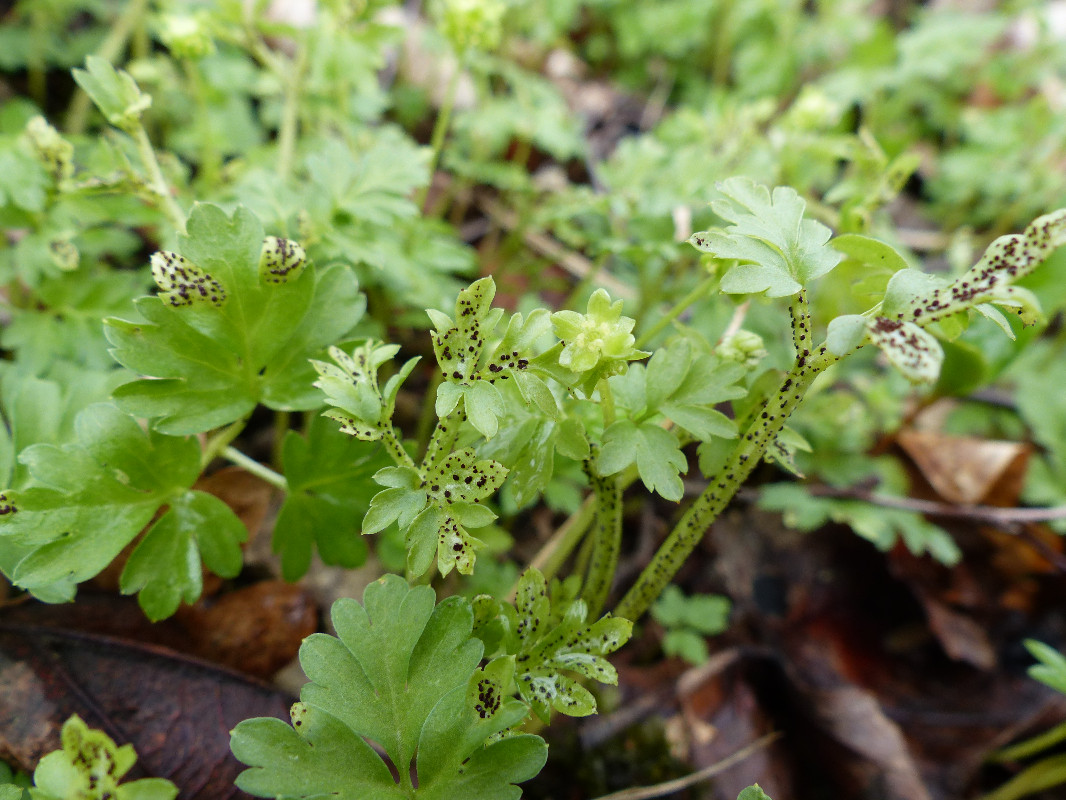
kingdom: Fungi
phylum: Basidiomycota
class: Pucciniomycetes
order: Pucciniales
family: Pucciniaceae
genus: Puccinia
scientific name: Puccinia adoxae
